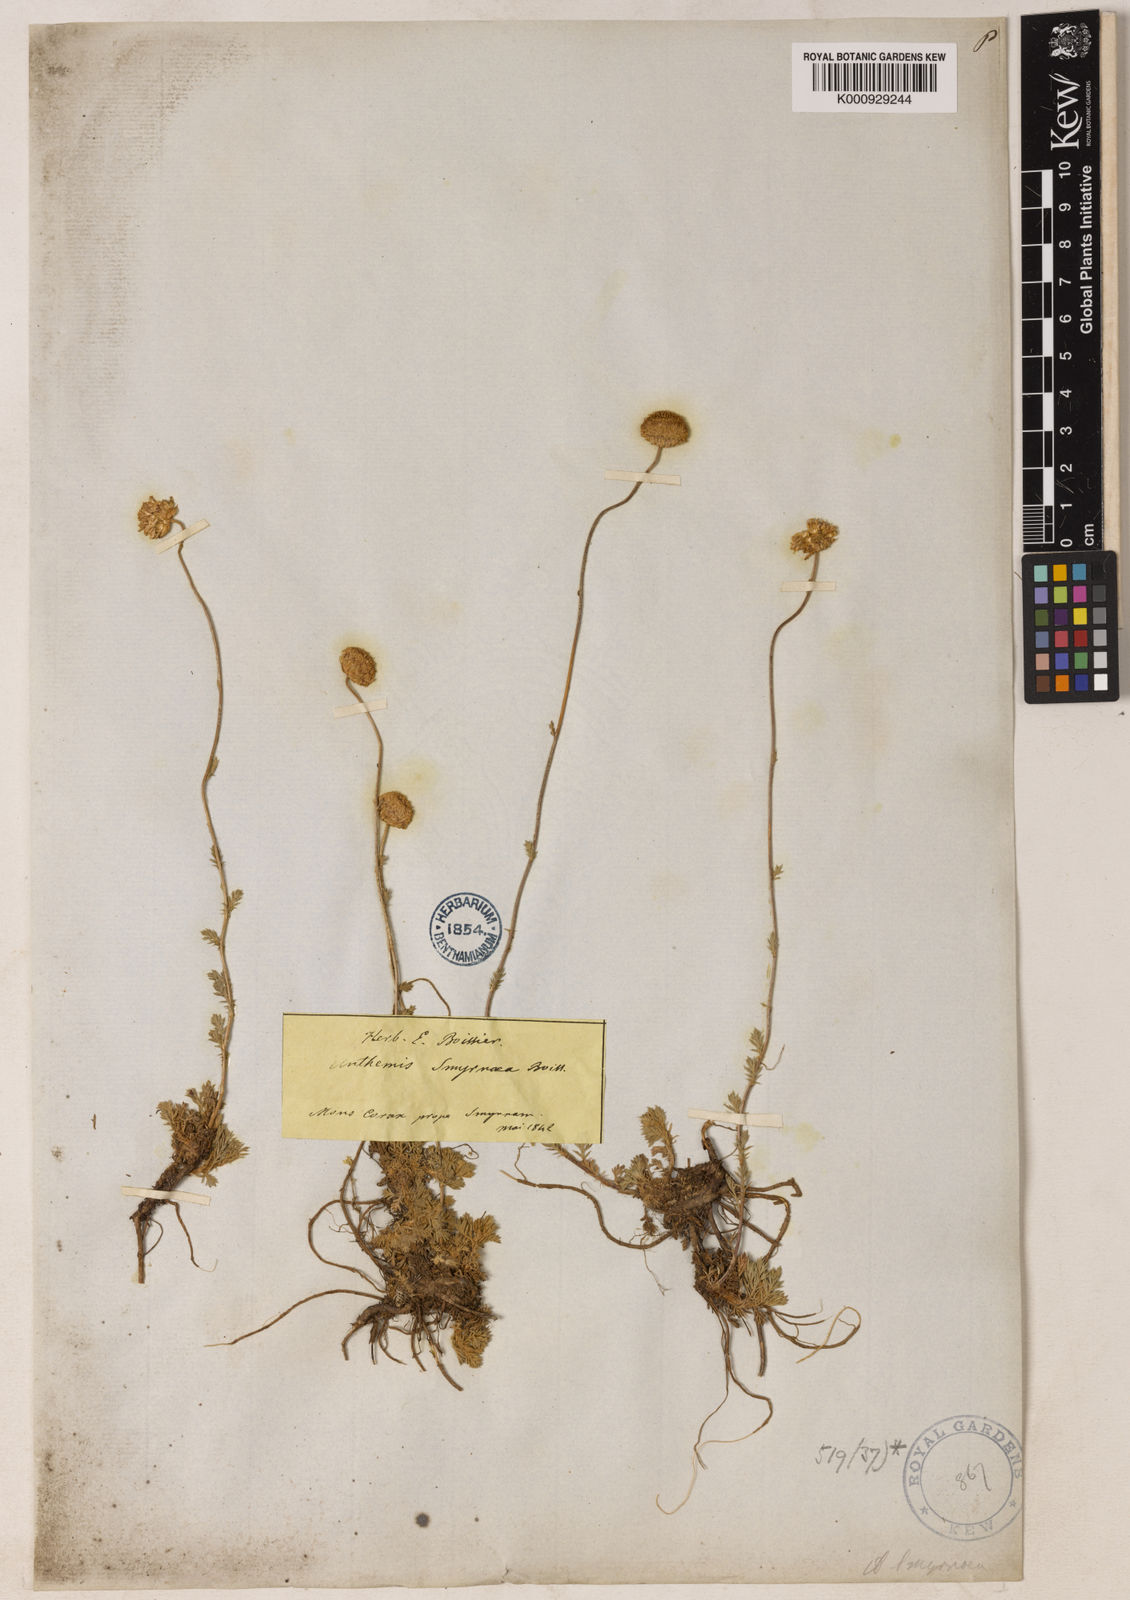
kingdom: Plantae
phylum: Tracheophyta
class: Magnoliopsida
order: Asterales
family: Asteraceae
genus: Anthemis
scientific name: Anthemis cretica
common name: Mountain dog-daisy
